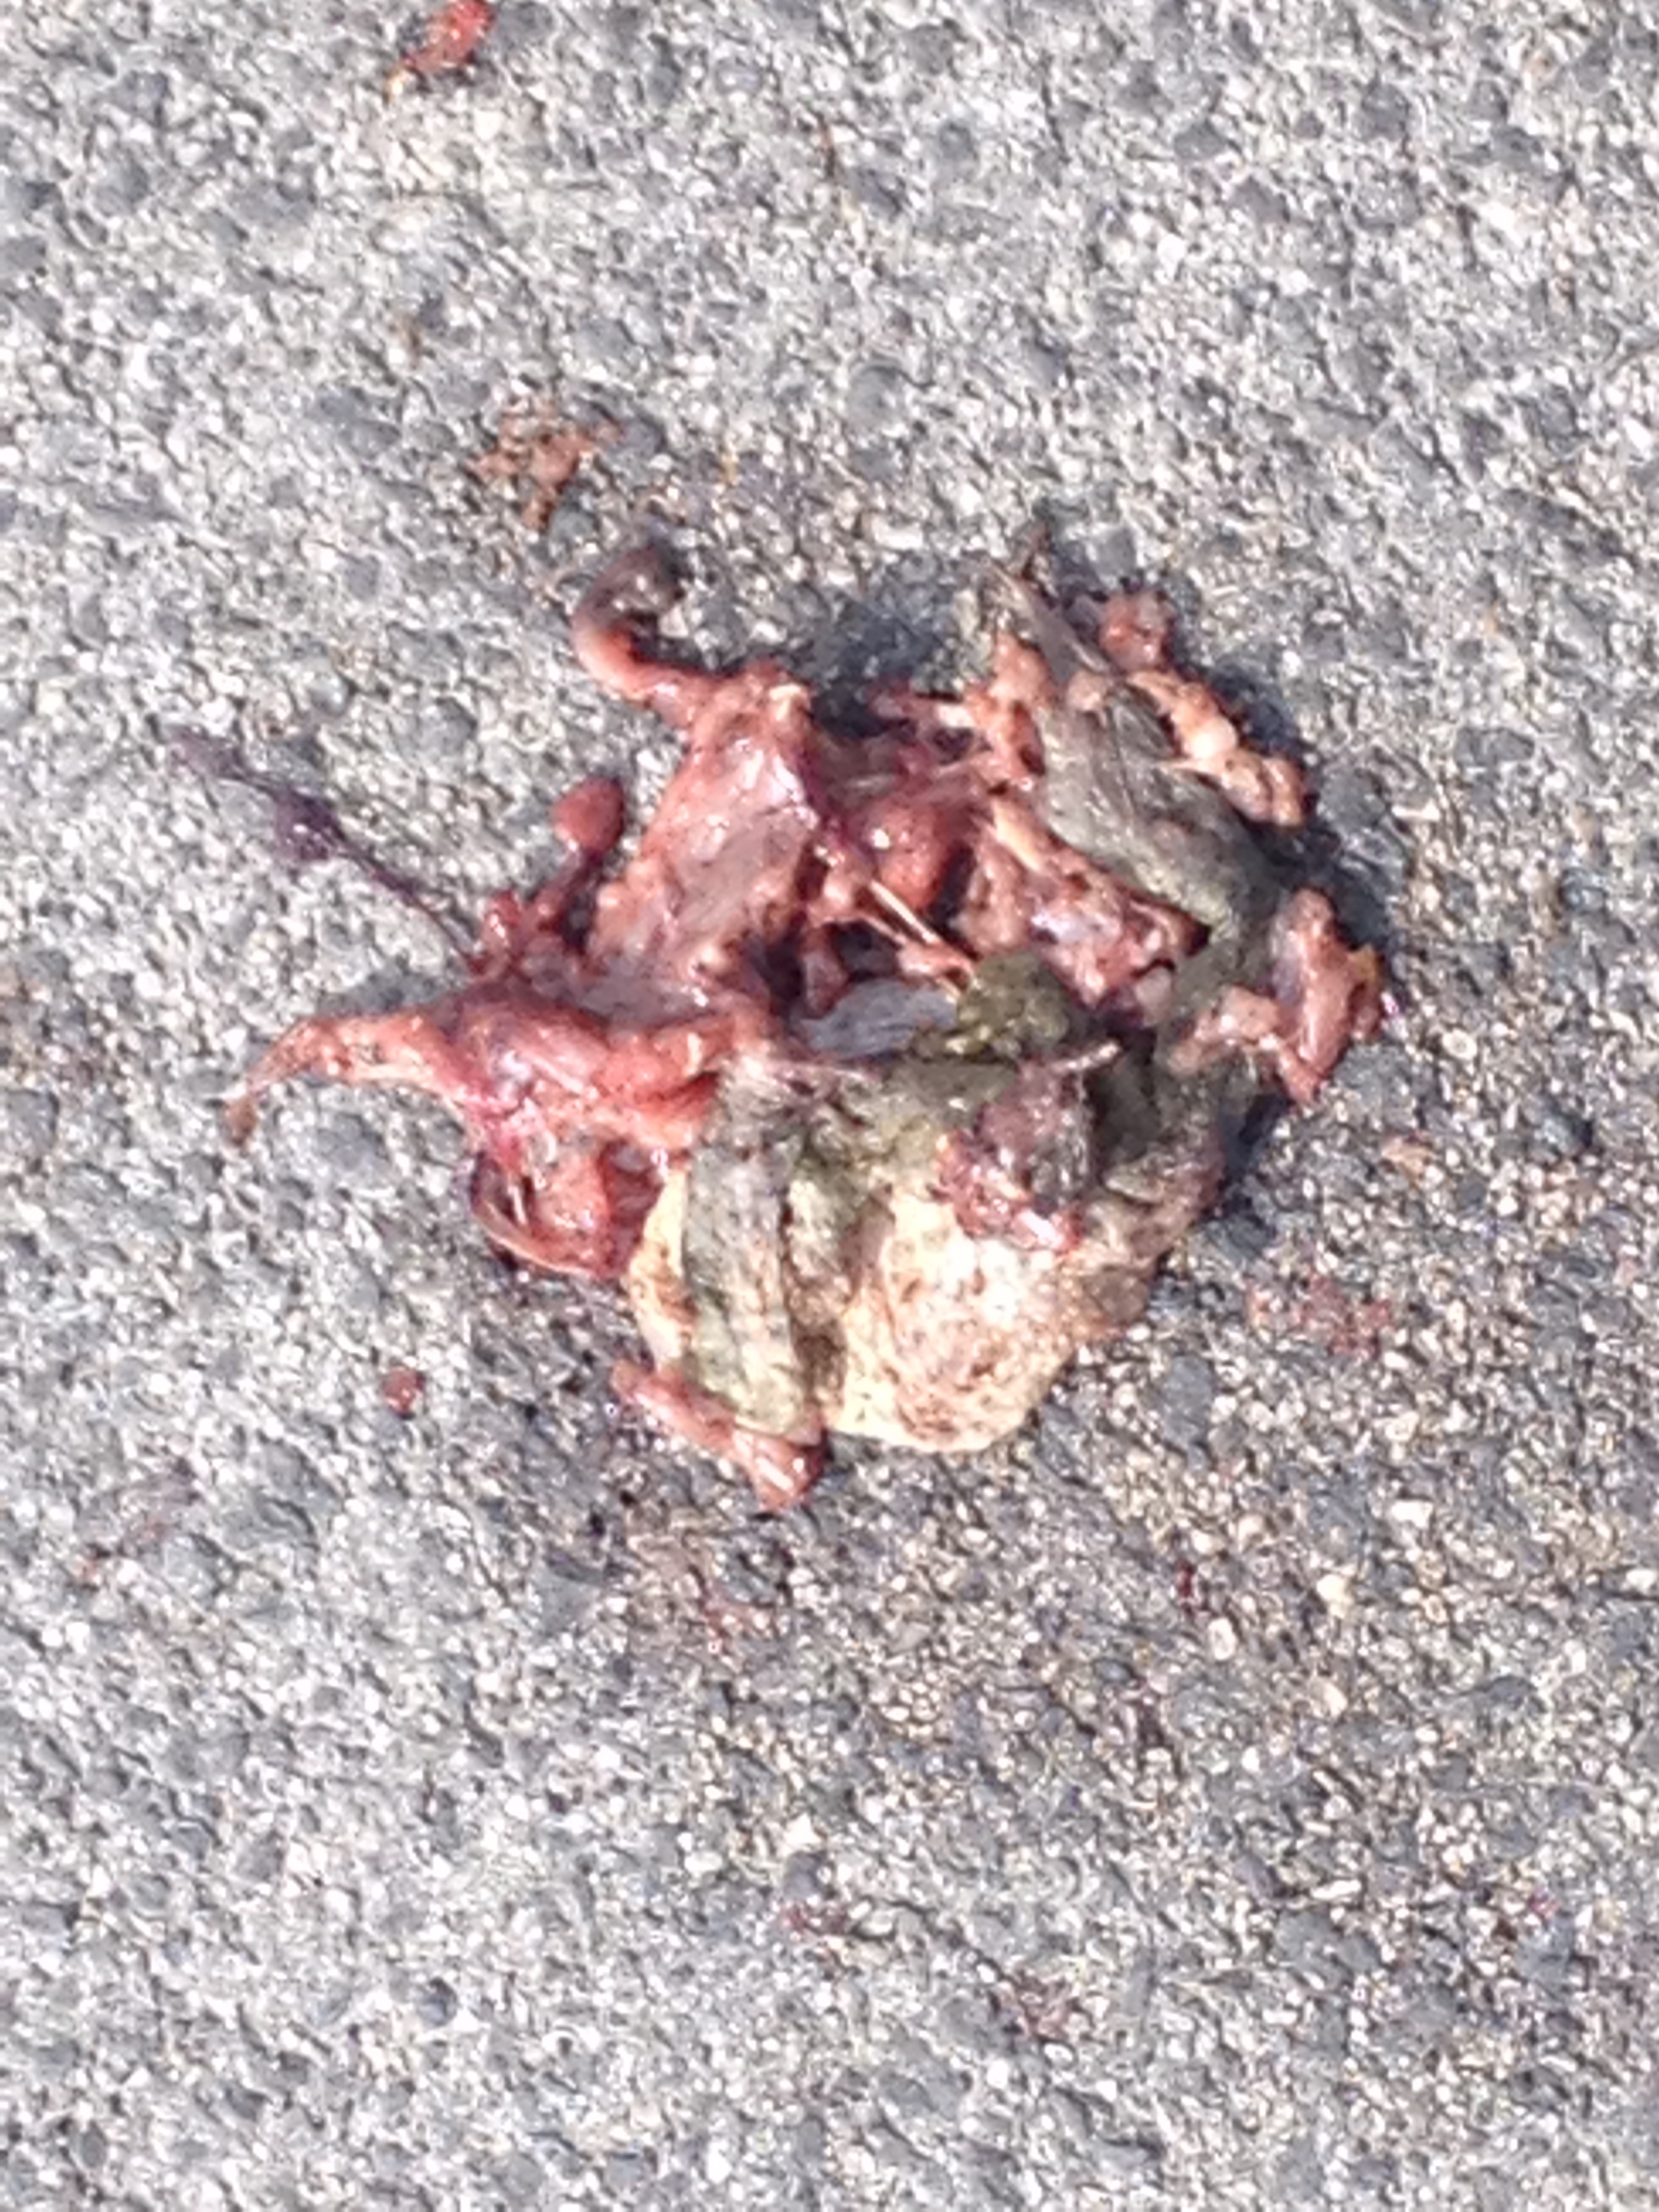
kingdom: Animalia
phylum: Chordata
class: Amphibia
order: Anura
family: Bufonidae
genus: Bufo
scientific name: Bufo bufo
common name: Common toad
